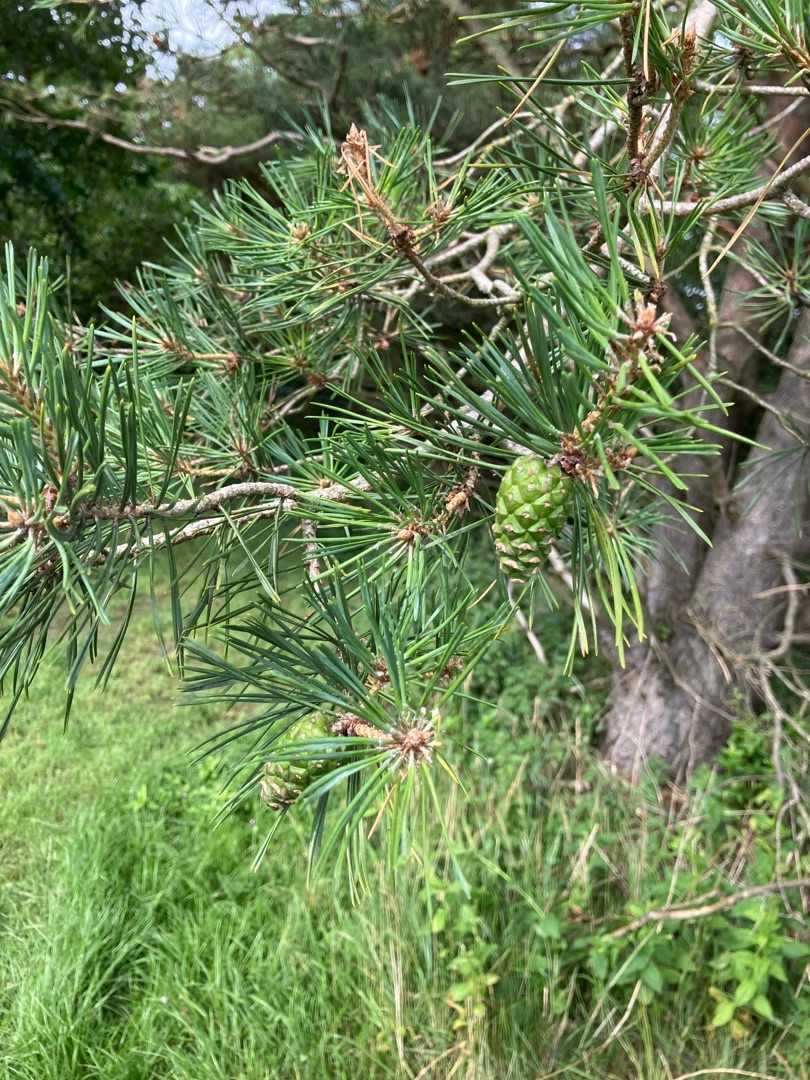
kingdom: Plantae
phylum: Tracheophyta
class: Pinopsida
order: Pinales
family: Pinaceae
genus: Pinus
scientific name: Pinus sylvestris
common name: Skov-fyr
